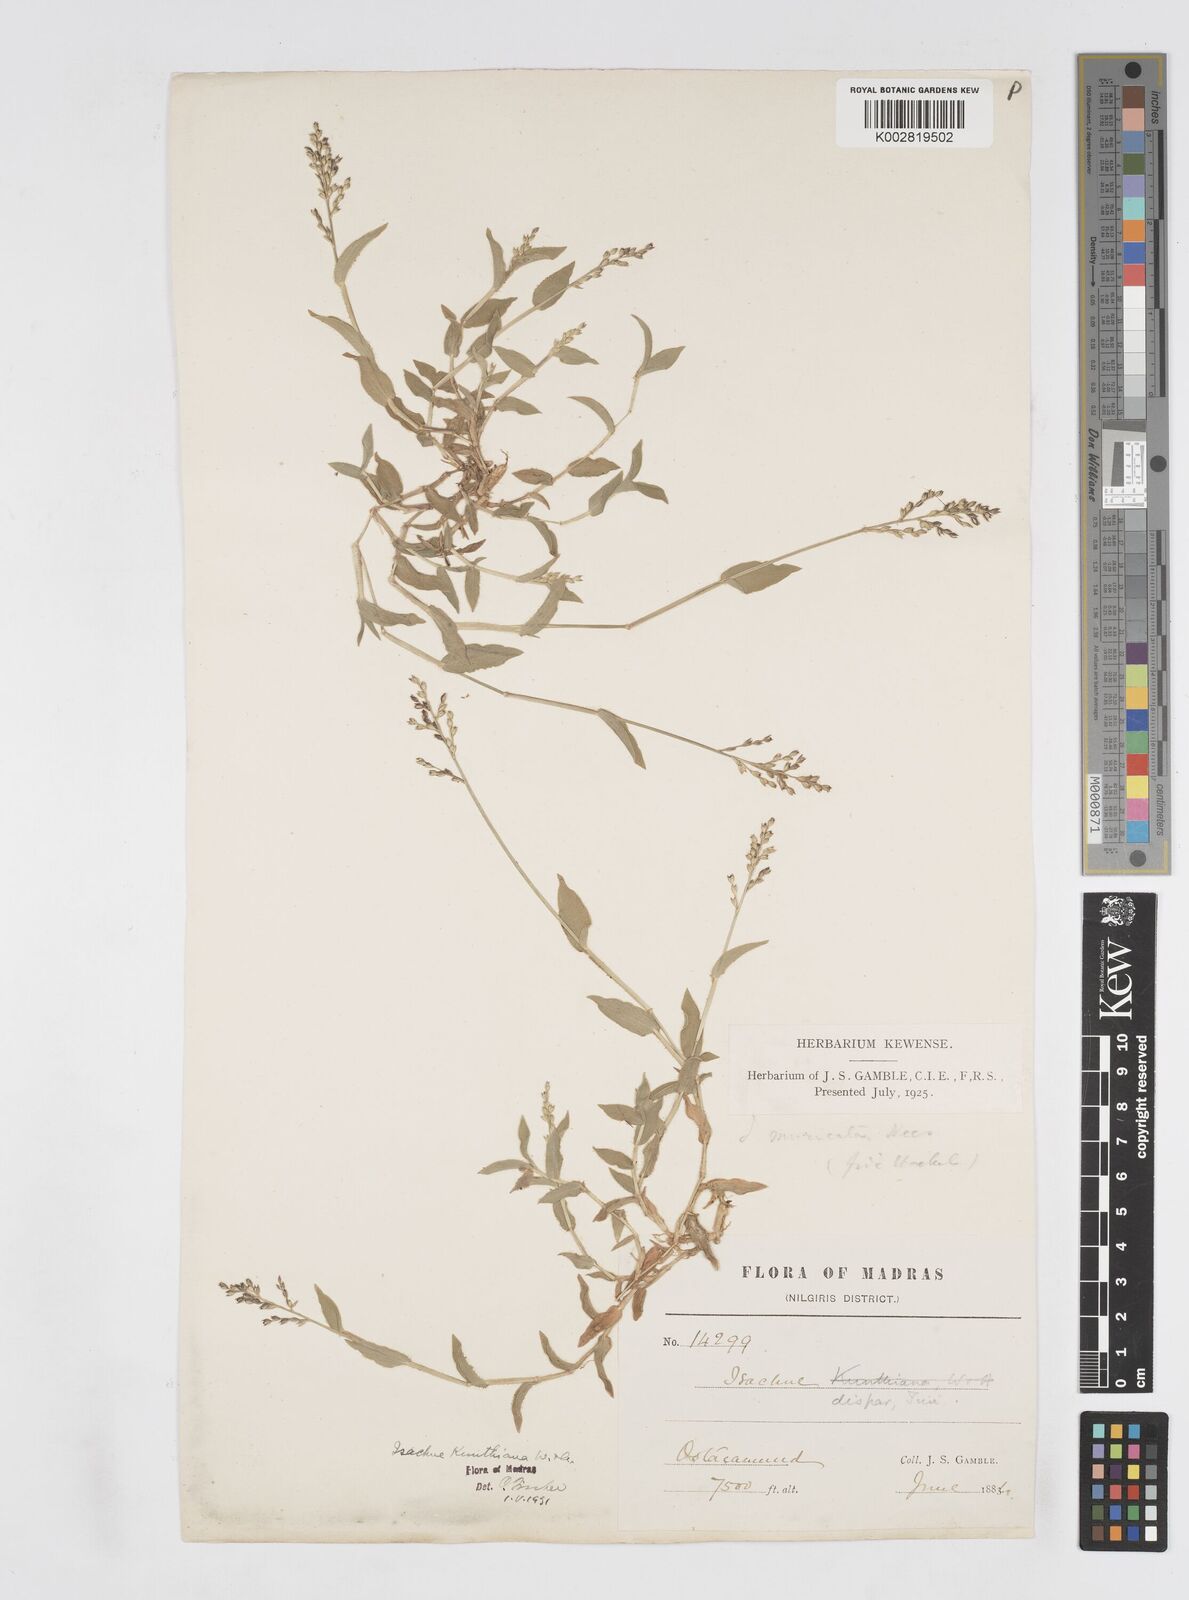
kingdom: Plantae
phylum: Tracheophyta
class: Liliopsida
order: Poales
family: Poaceae
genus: Isachne
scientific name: Isachne kunthiana
